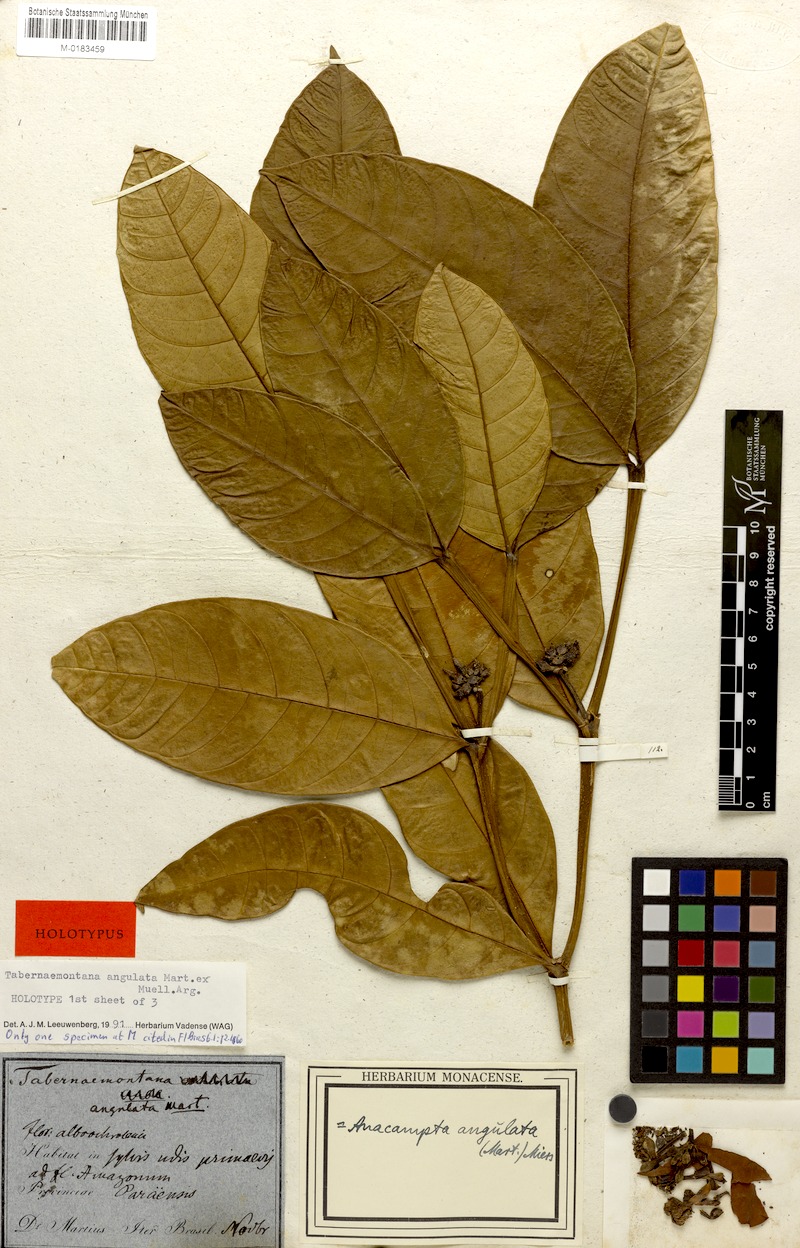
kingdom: Plantae
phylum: Tracheophyta
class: Magnoliopsida
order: Gentianales
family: Apocynaceae
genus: Tabernaemontana
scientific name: Tabernaemontana angulata
